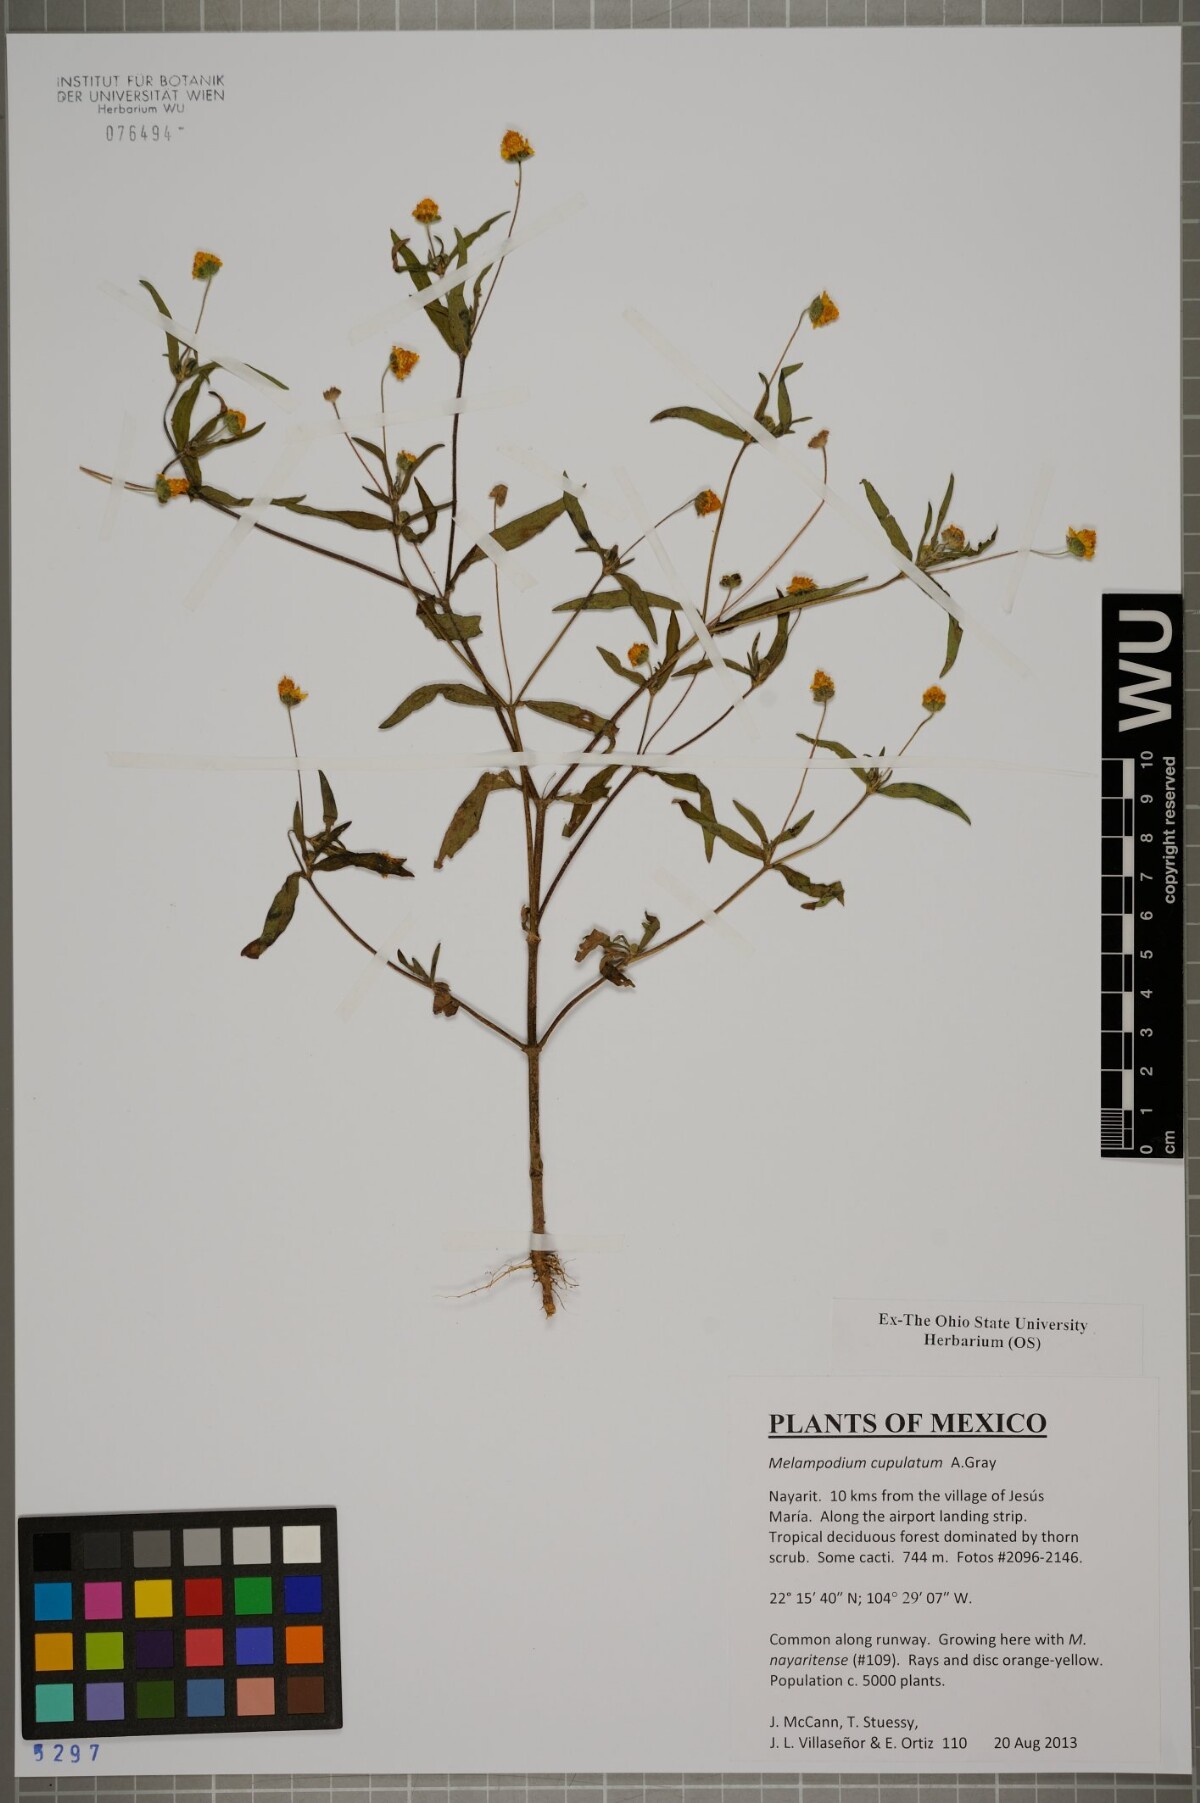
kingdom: Plantae
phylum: Tracheophyta
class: Magnoliopsida
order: Asterales
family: Asteraceae
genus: Melampodium
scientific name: Melampodium cupulatum
